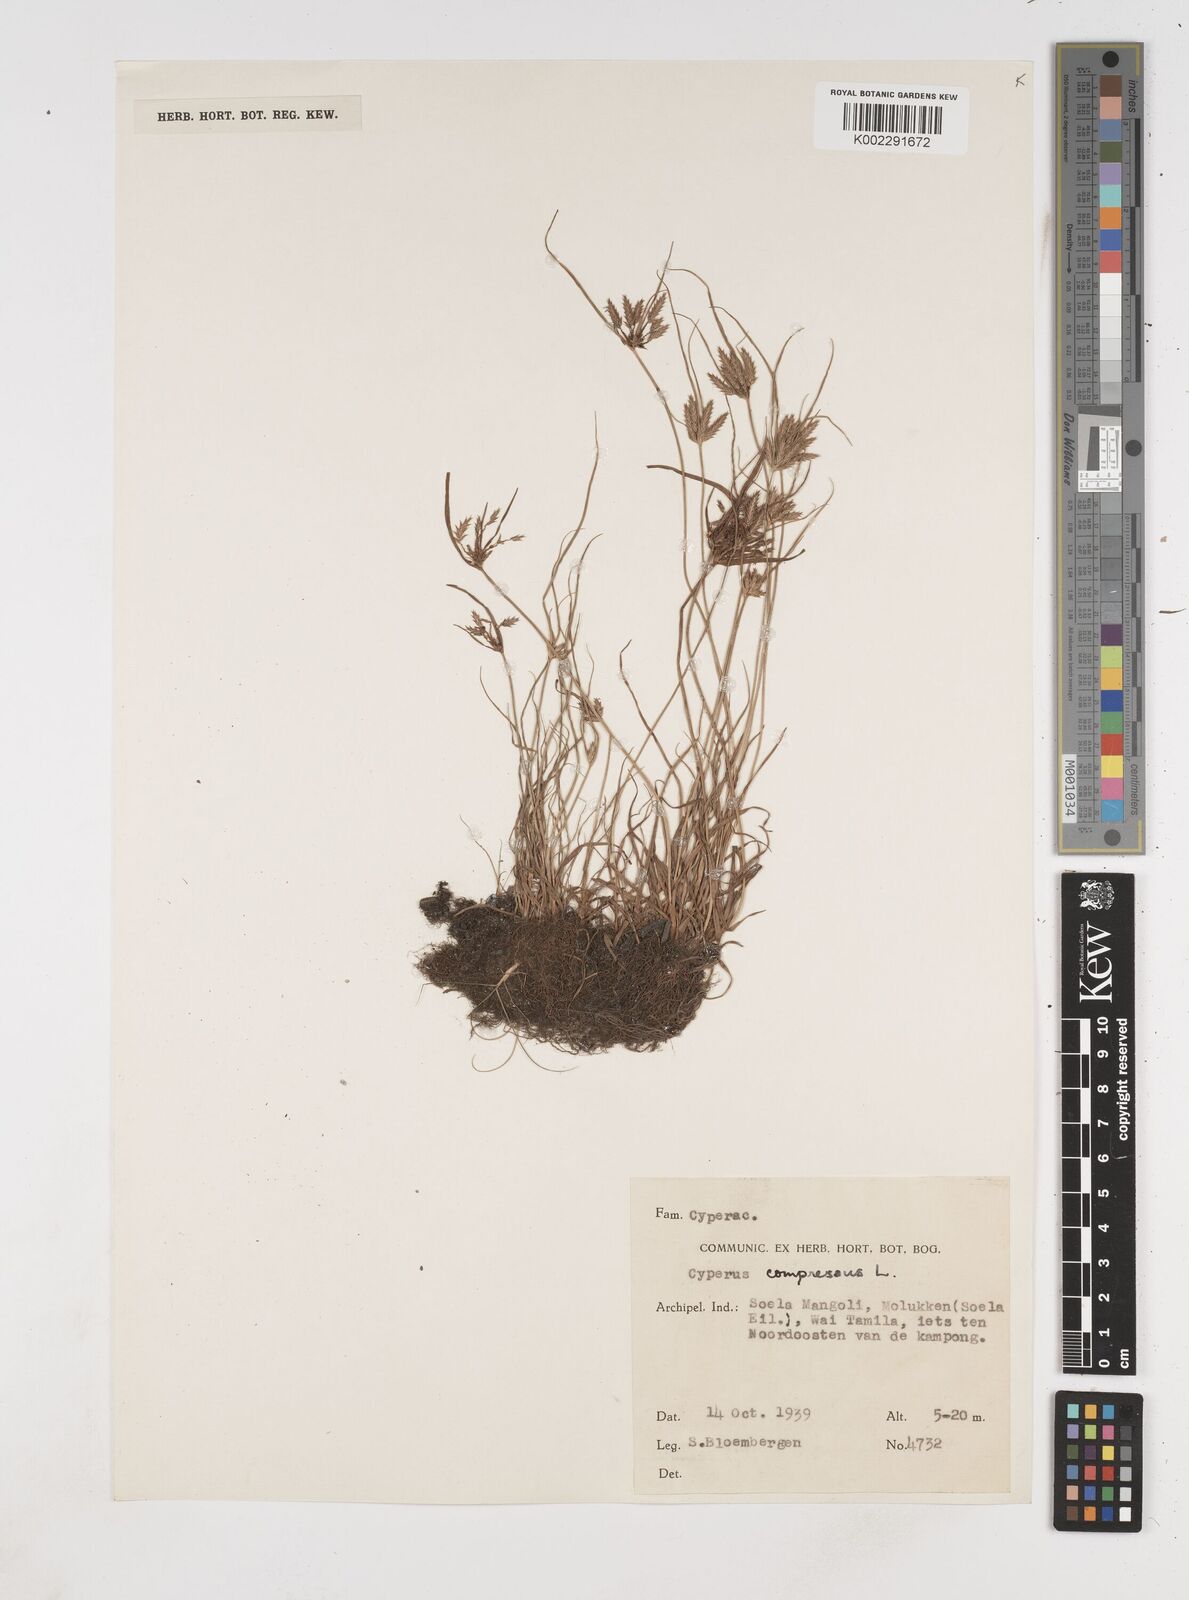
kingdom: Plantae
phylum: Tracheophyta
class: Liliopsida
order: Poales
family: Cyperaceae
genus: Cyperus
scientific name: Cyperus compressus
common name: Poorland flatsedge
